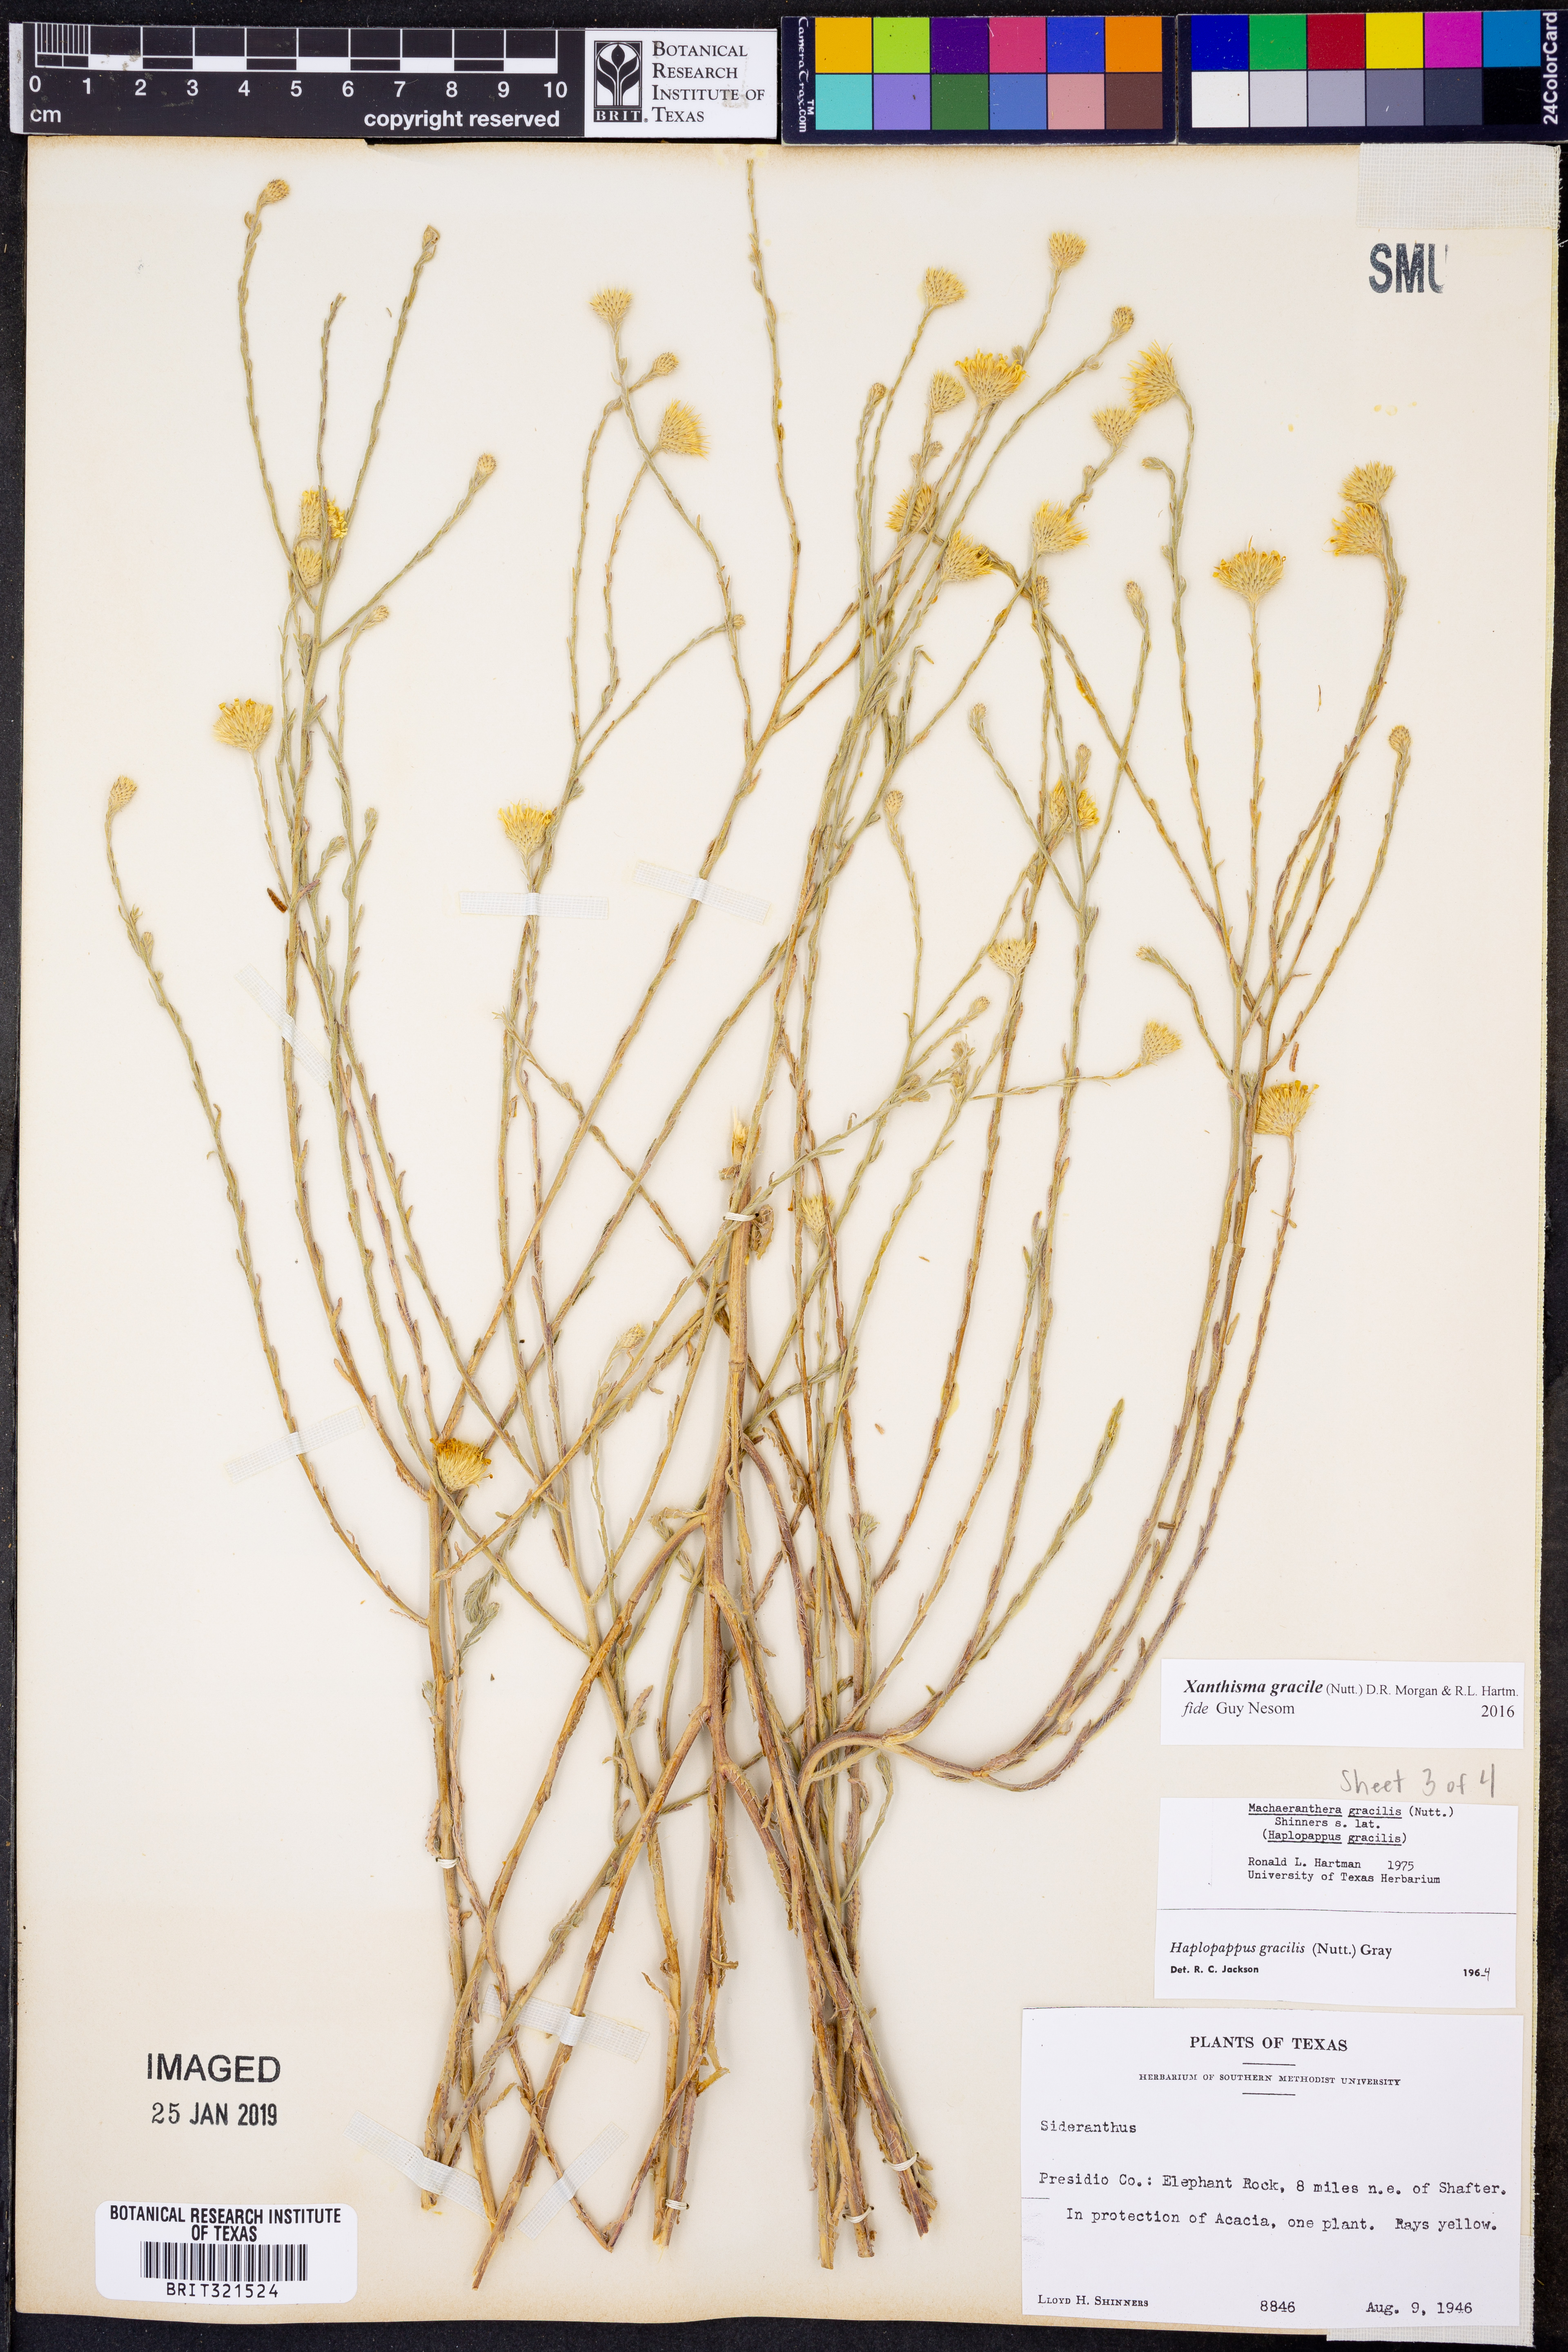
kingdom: Plantae
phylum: Tracheophyta
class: Magnoliopsida
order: Asterales
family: Asteraceae
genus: Xanthisma
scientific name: Xanthisma gracile
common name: Slender goldenweed
